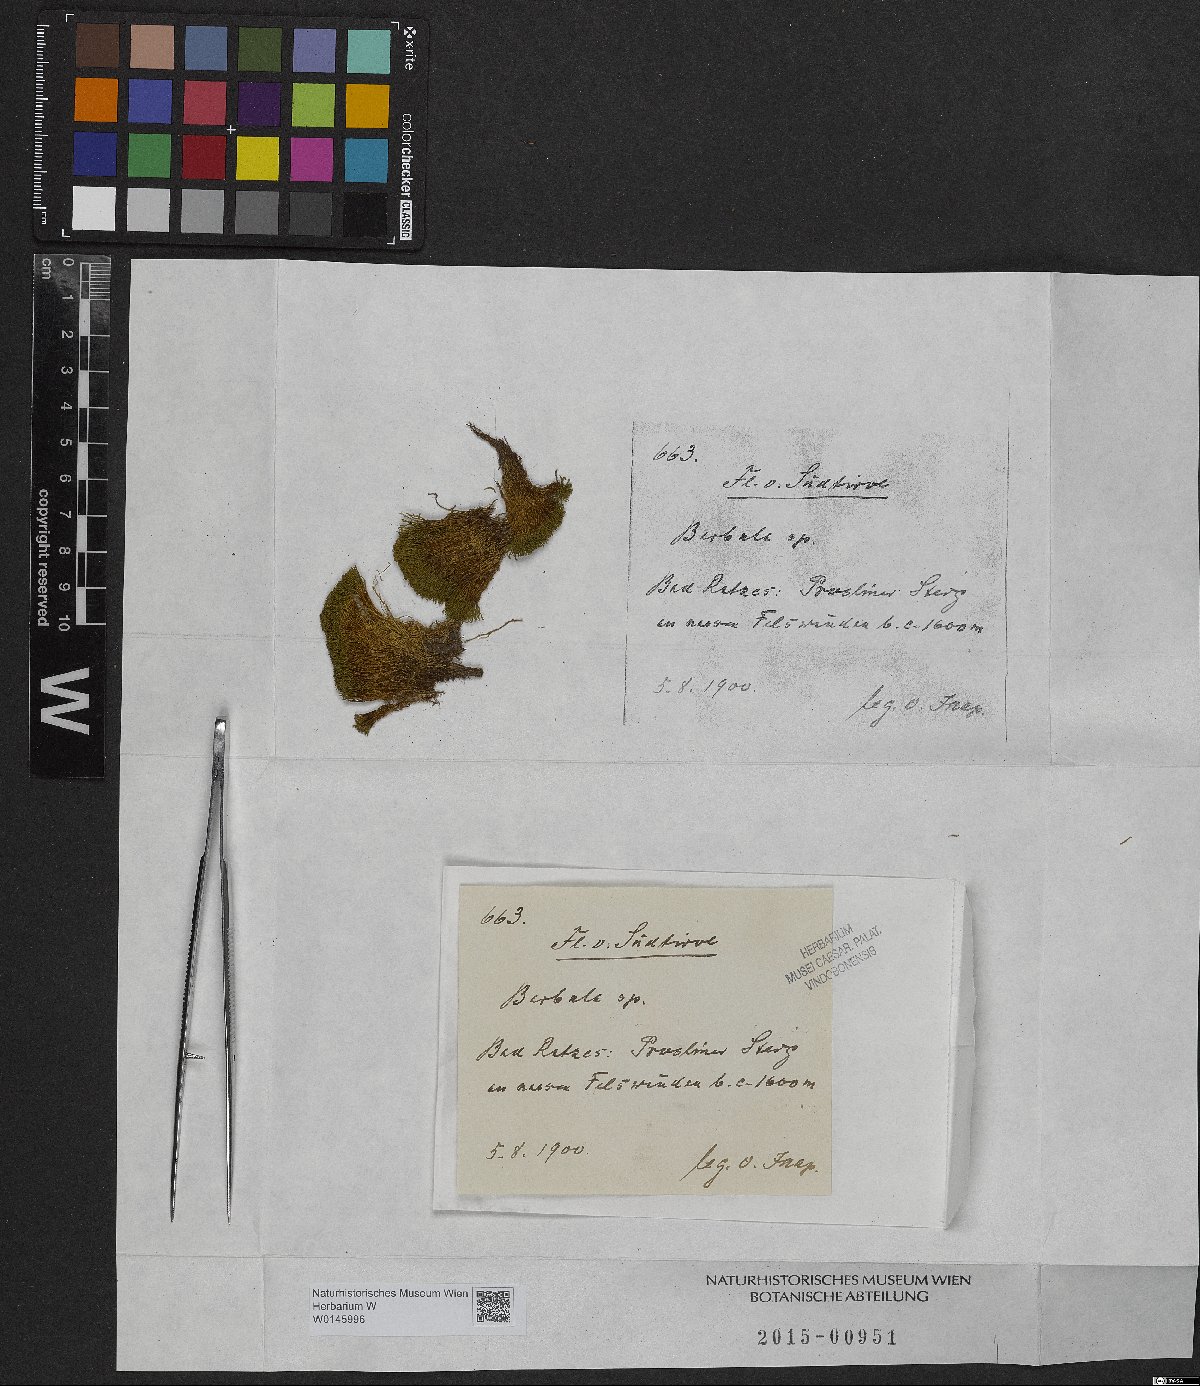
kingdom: Plantae
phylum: Bryophyta
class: Bryopsida
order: Pottiales
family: Pottiaceae
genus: Barbula
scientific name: Barbula
